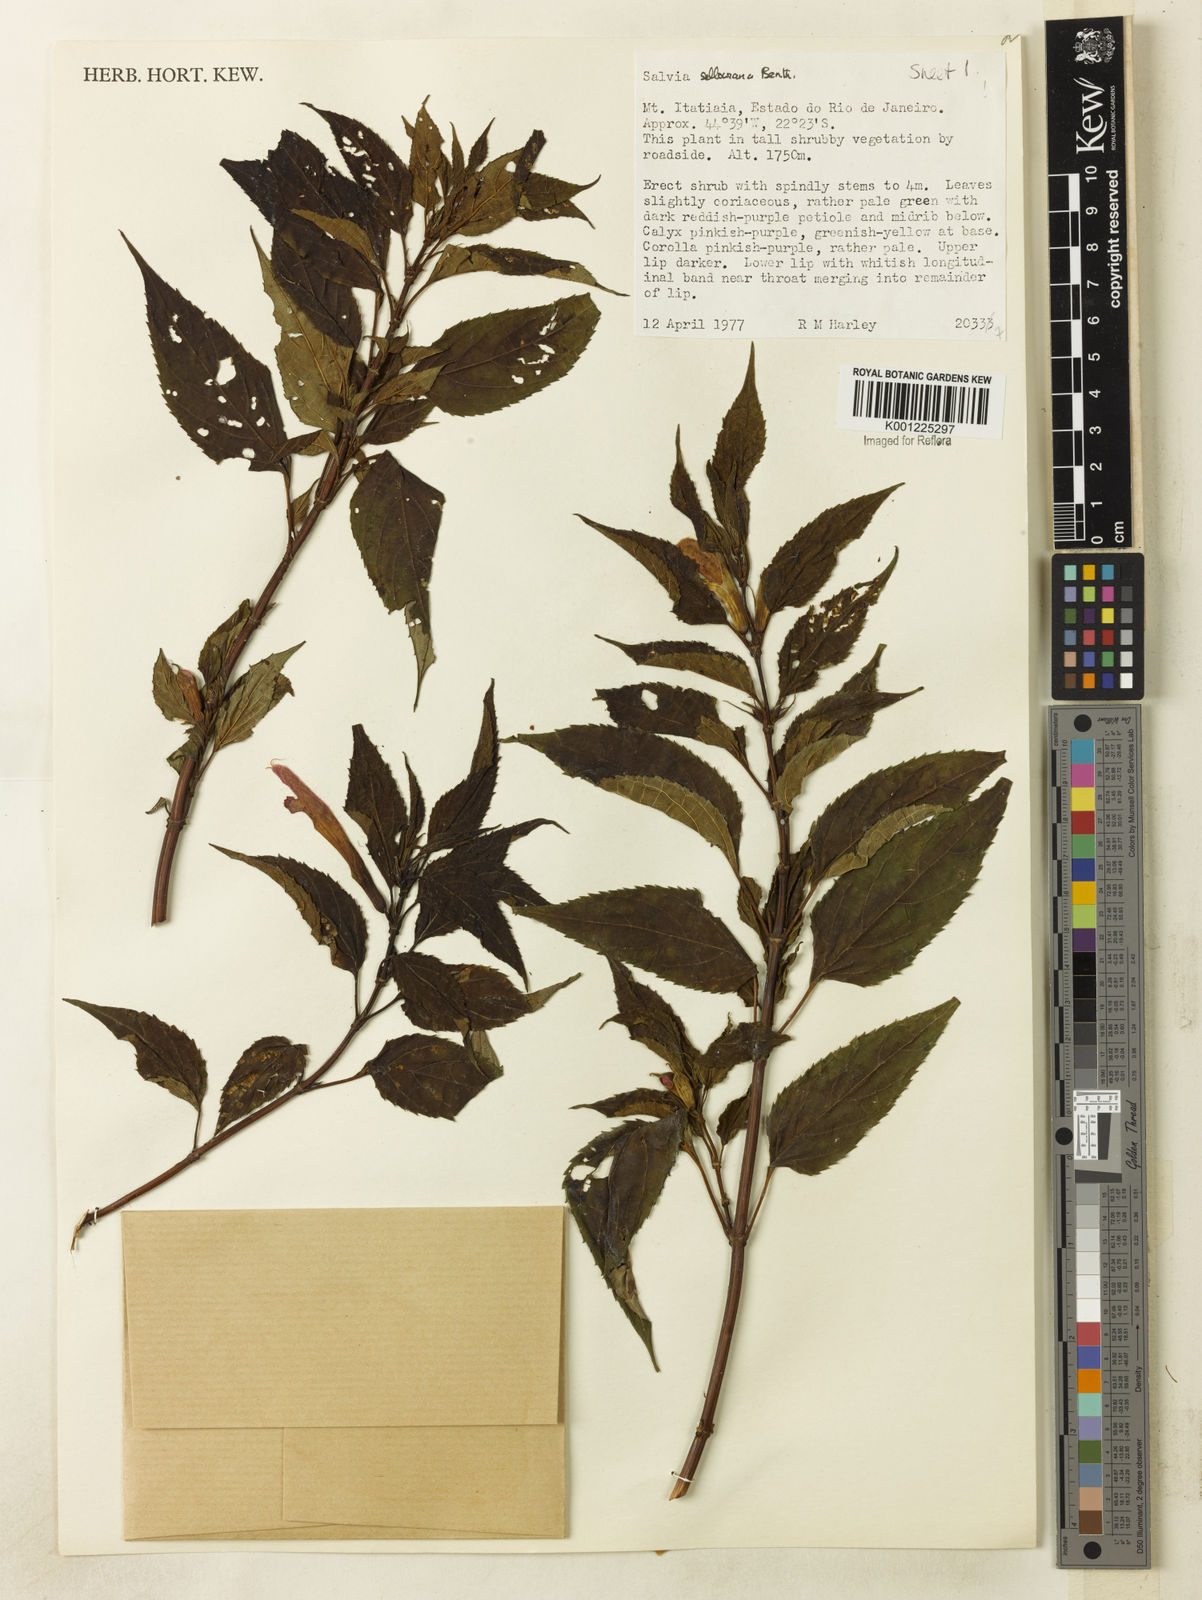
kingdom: Plantae
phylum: Tracheophyta
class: Magnoliopsida
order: Lamiales
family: Lamiaceae
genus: Salvia
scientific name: Salvia sellowiana
